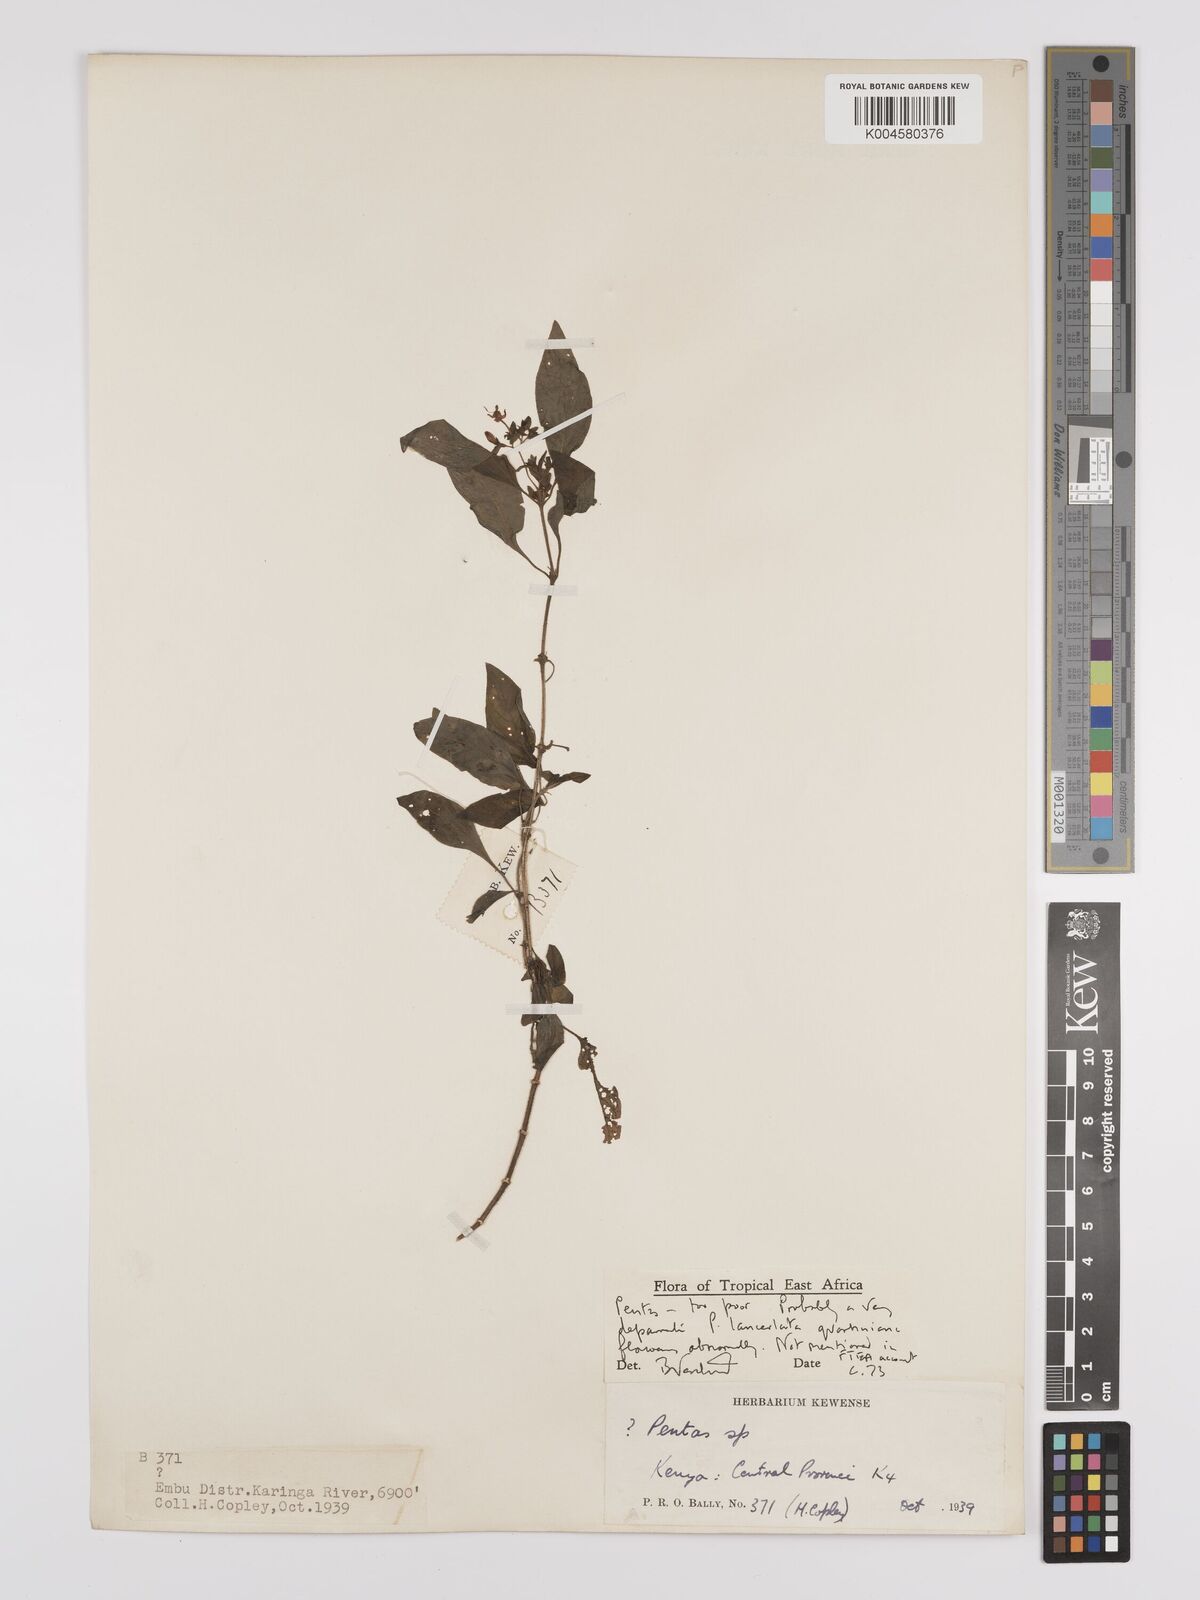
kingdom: Plantae
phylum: Tracheophyta
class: Magnoliopsida
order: Gentianales
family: Rubiaceae
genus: Pentas
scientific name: Pentas lanceolata
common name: Egyptian starcluster
